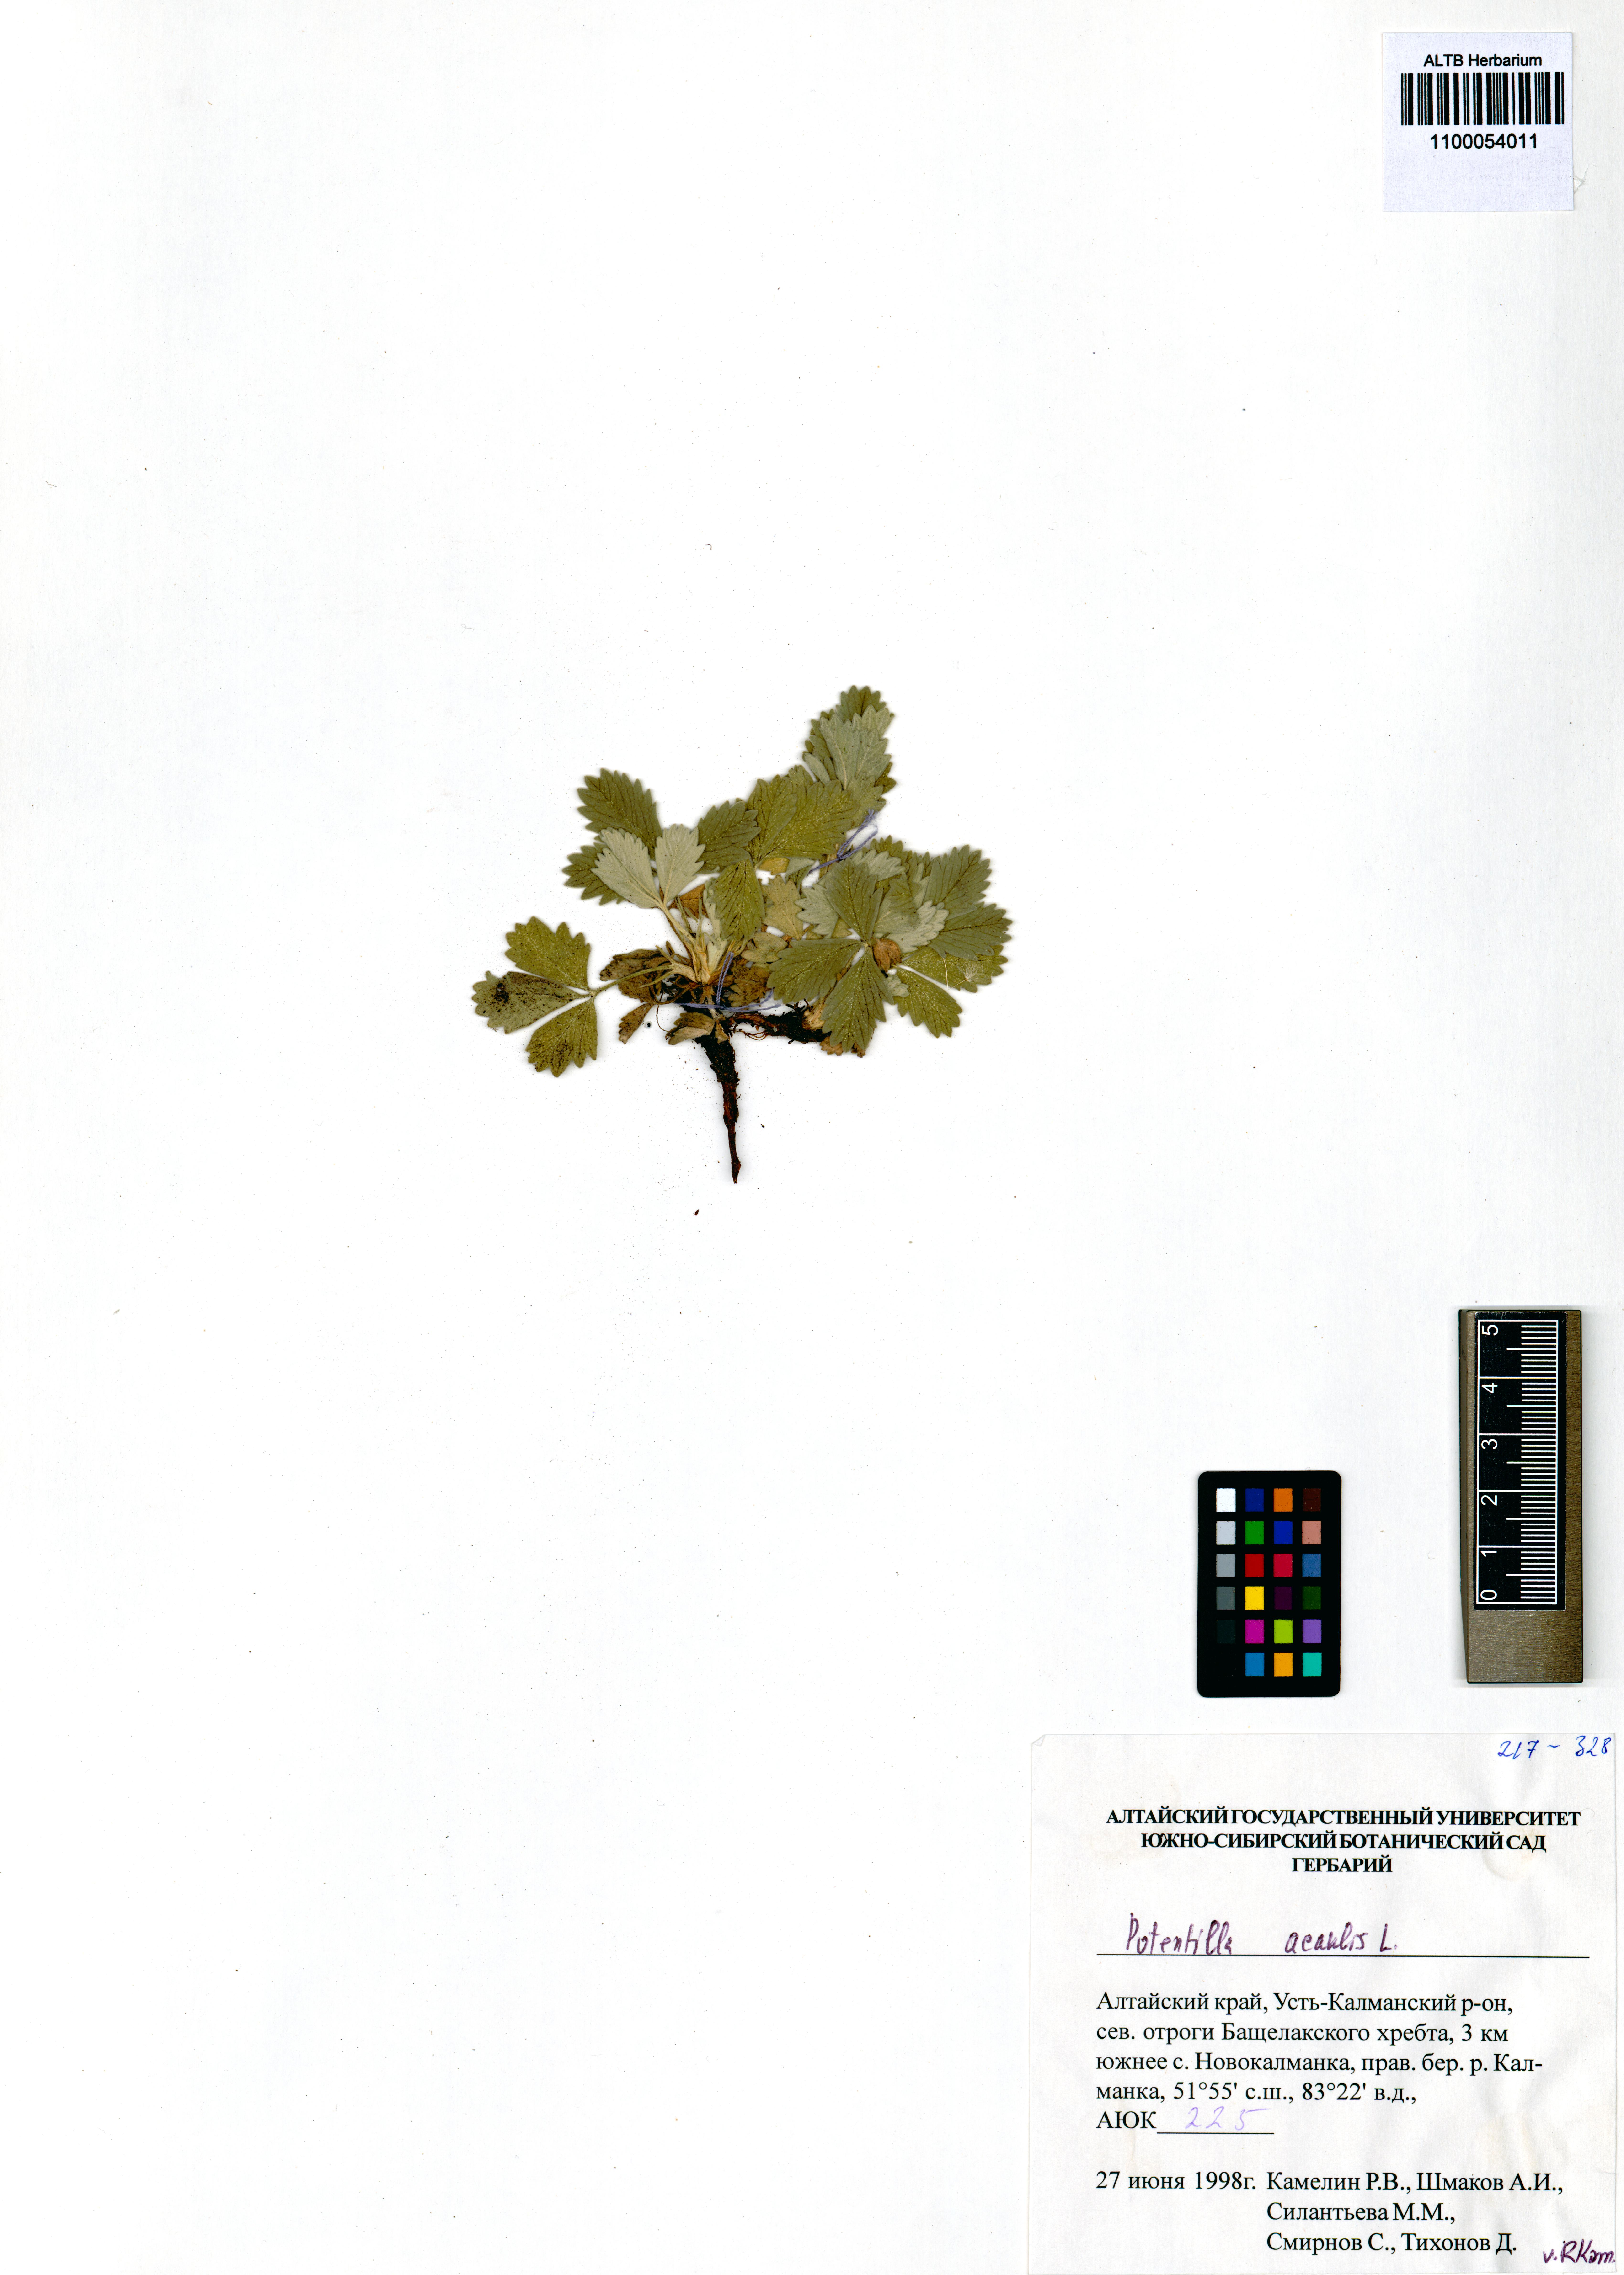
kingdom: Plantae
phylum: Tracheophyta
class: Magnoliopsida
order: Rosales
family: Rosaceae
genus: Potentilla
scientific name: Potentilla acaulis
